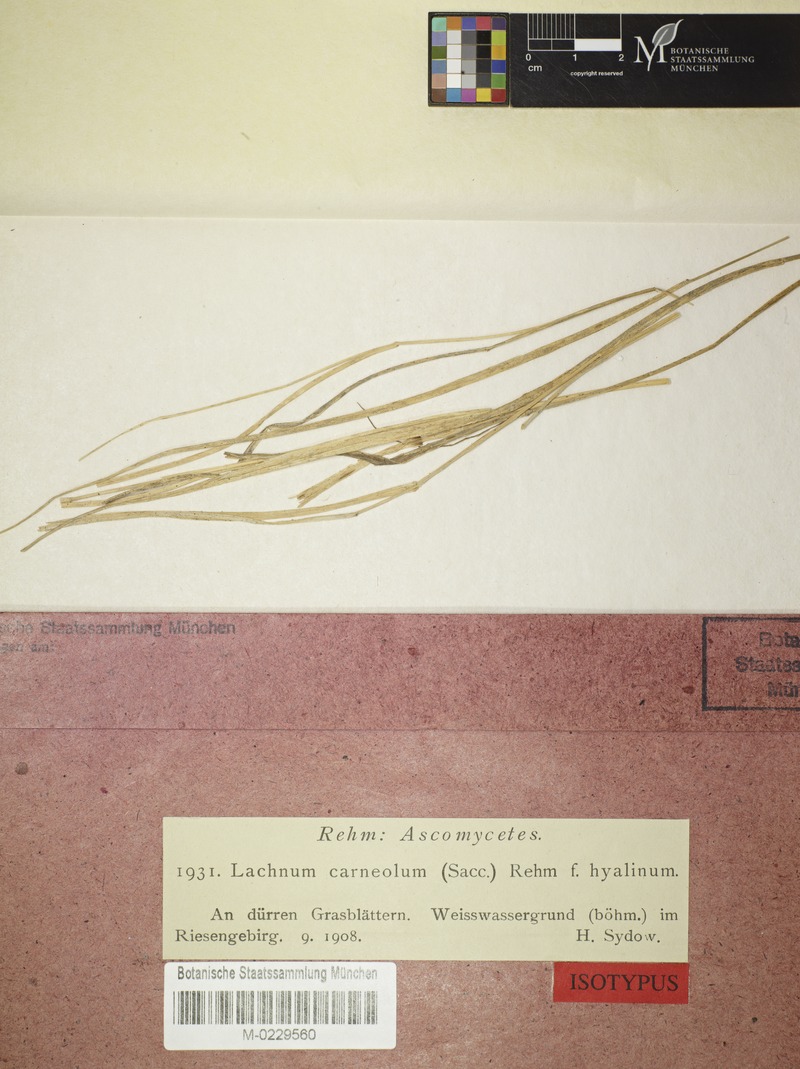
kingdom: Fungi
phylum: Ascomycota
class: Leotiomycetes
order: Helotiales
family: Lachnaceae
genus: Lachnum
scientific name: Lachnum carneolum
